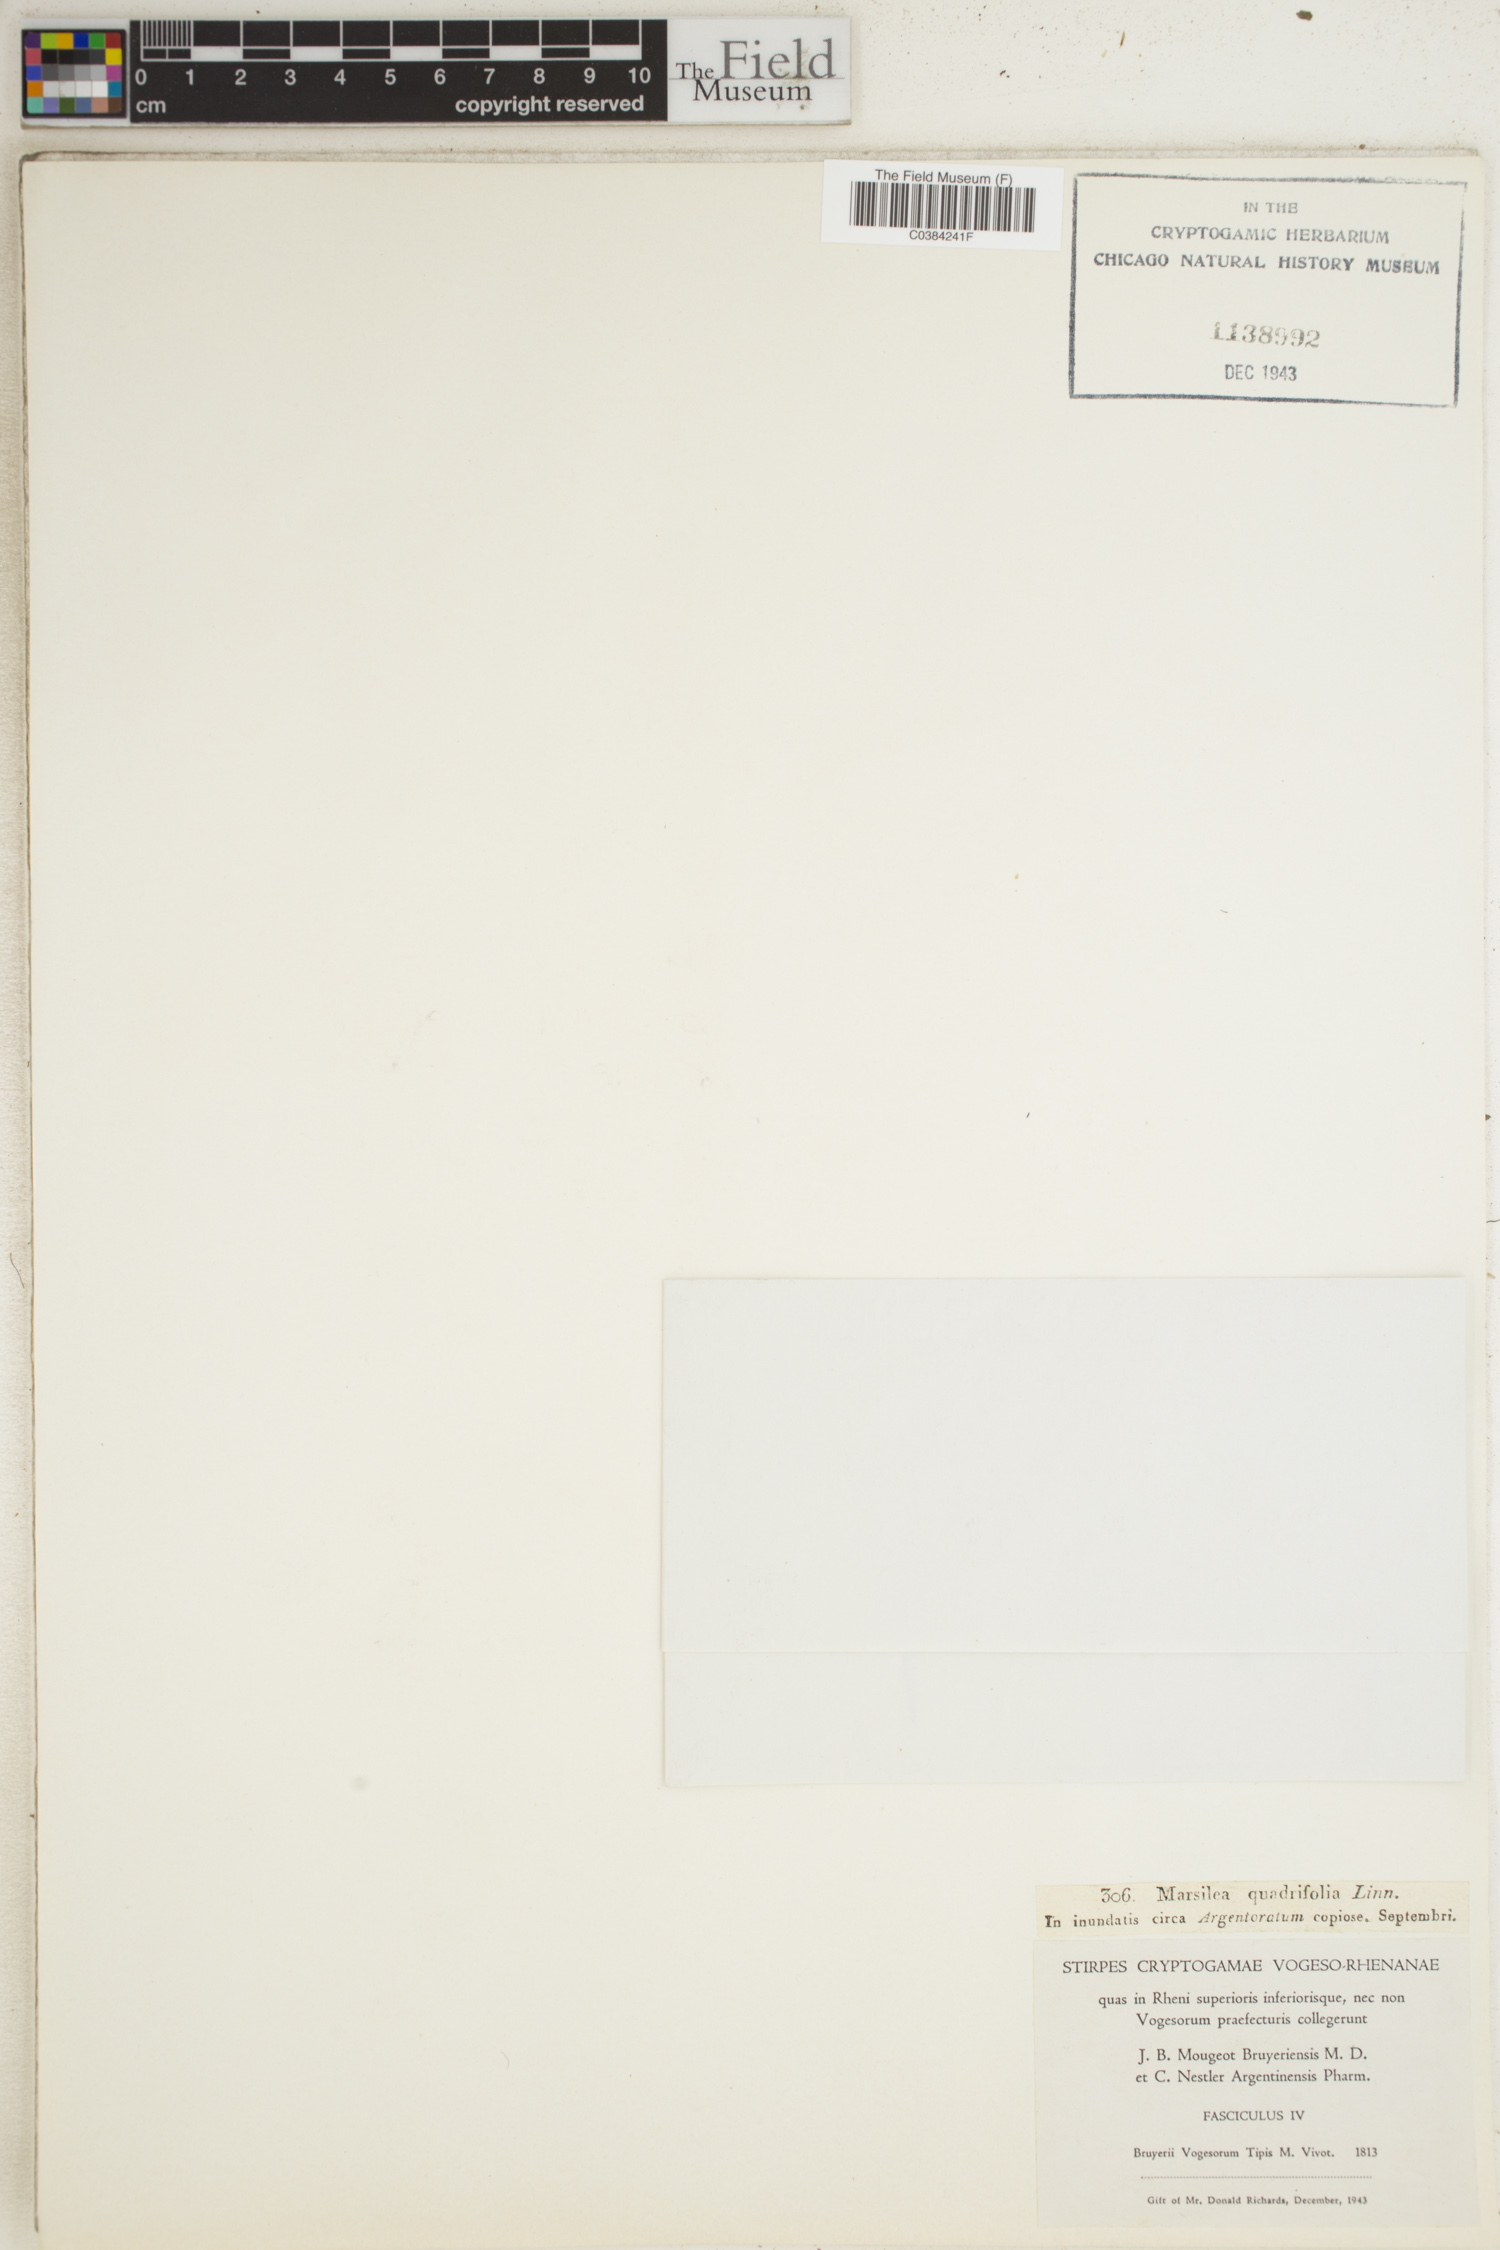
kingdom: Plantae
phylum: Tracheophyta
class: Polypodiopsida
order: Salviniales
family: Marsileaceae
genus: Marsilea
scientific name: Marsilea quadrifolia
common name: Water shamrock
